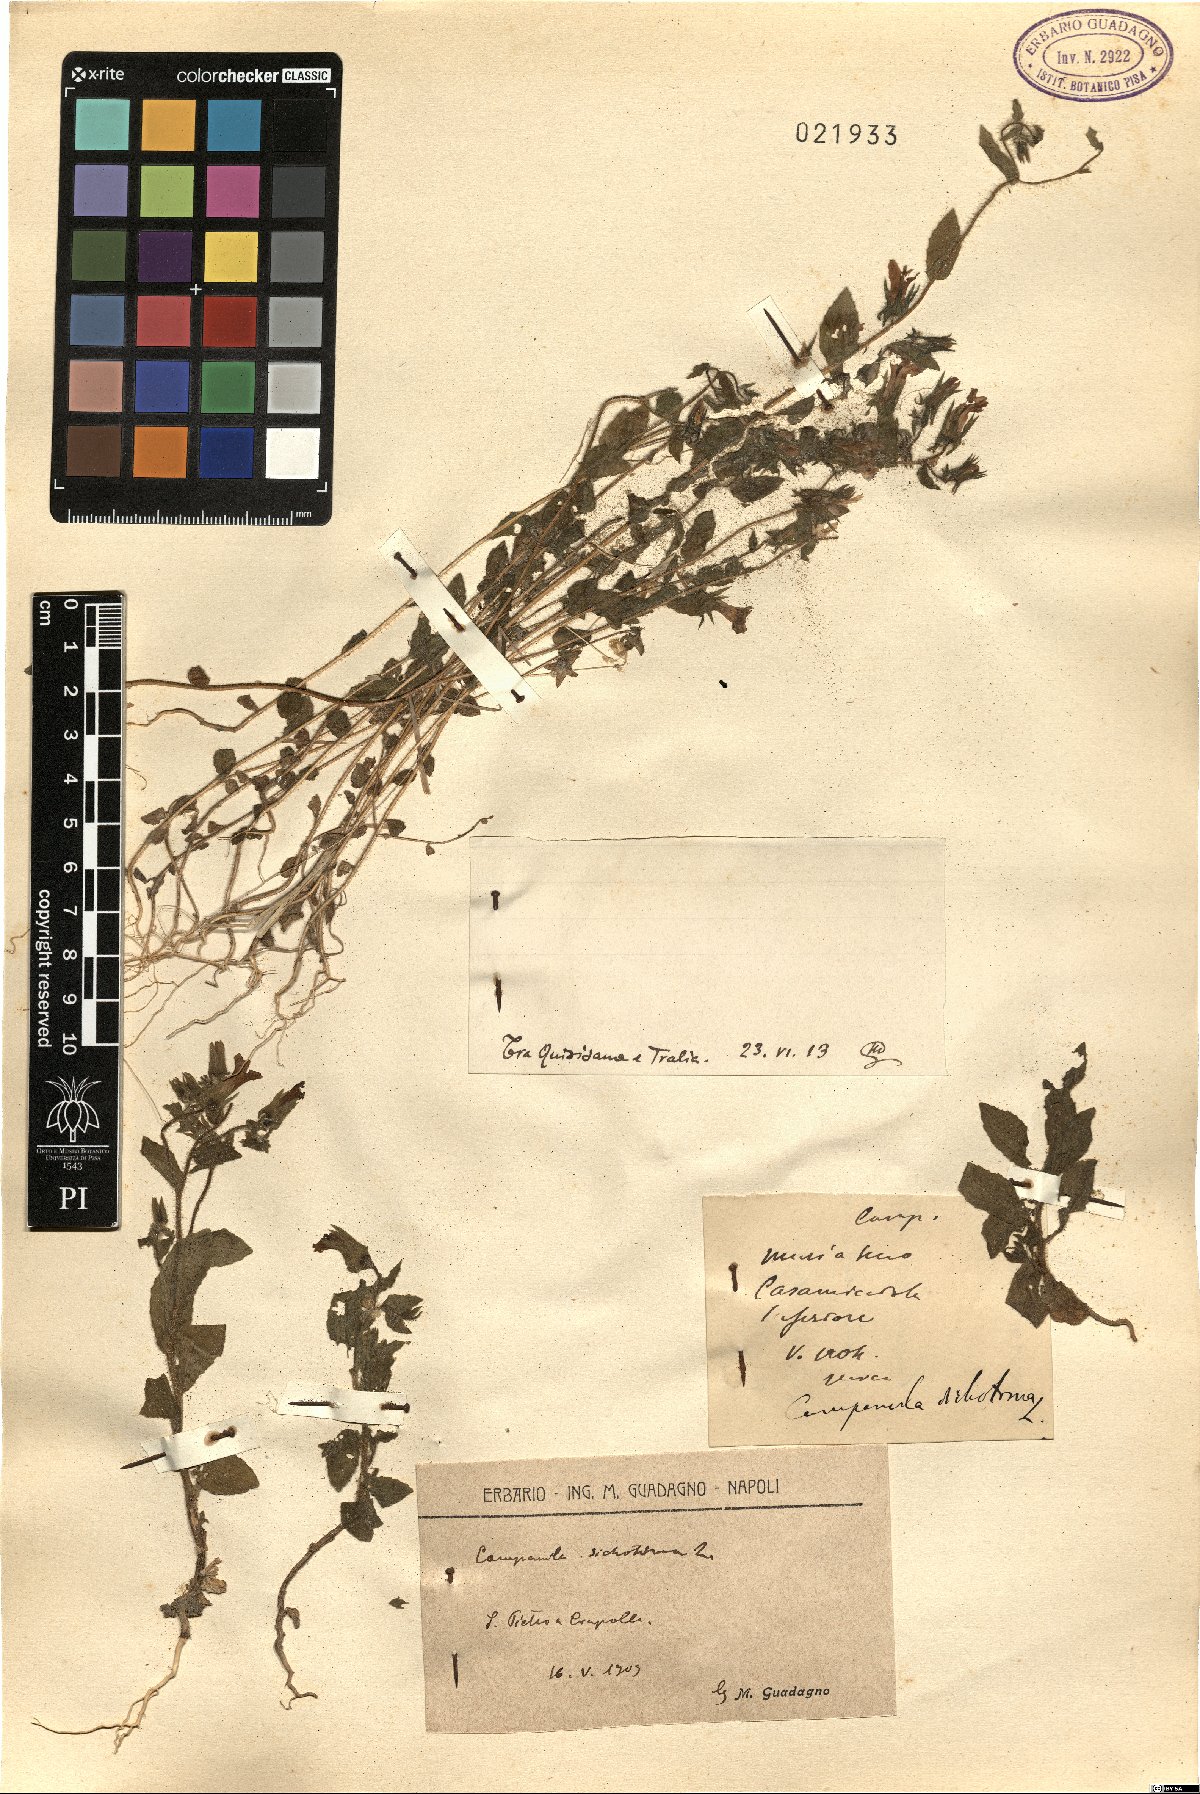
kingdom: Plantae
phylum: Tracheophyta
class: Magnoliopsida
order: Asterales
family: Campanulaceae
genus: Campanula
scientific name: Campanula
